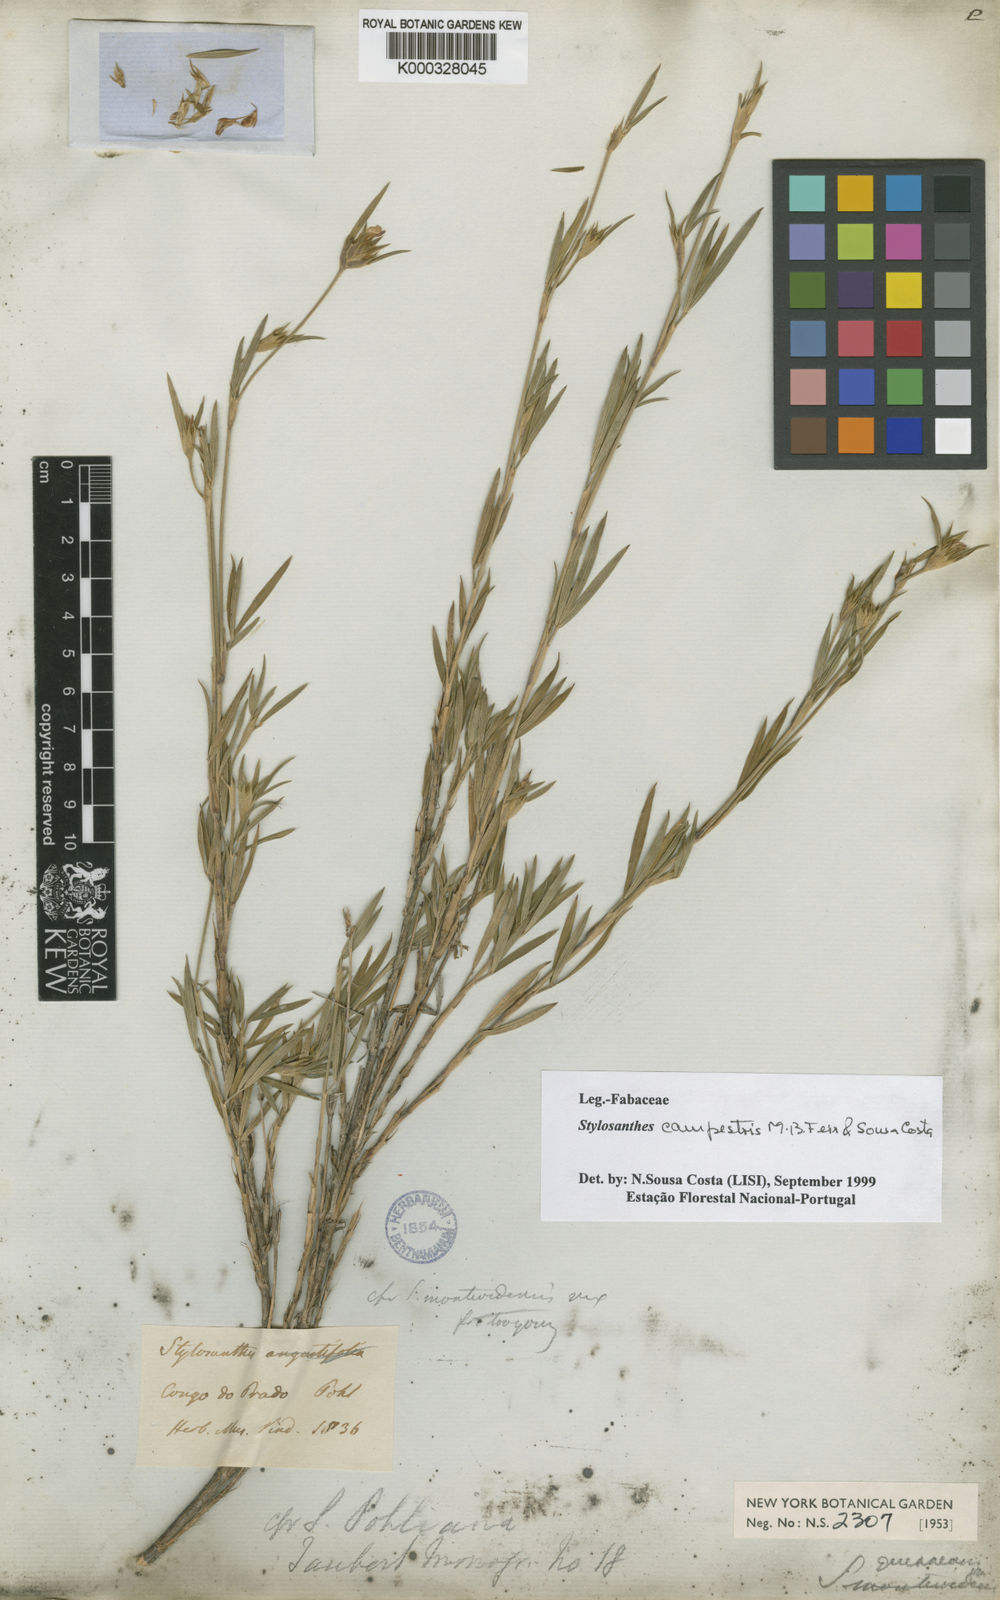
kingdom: Plantae
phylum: Tracheophyta
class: Magnoliopsida
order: Fabales
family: Fabaceae
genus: Stylosanthes
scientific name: Stylosanthes campestris
